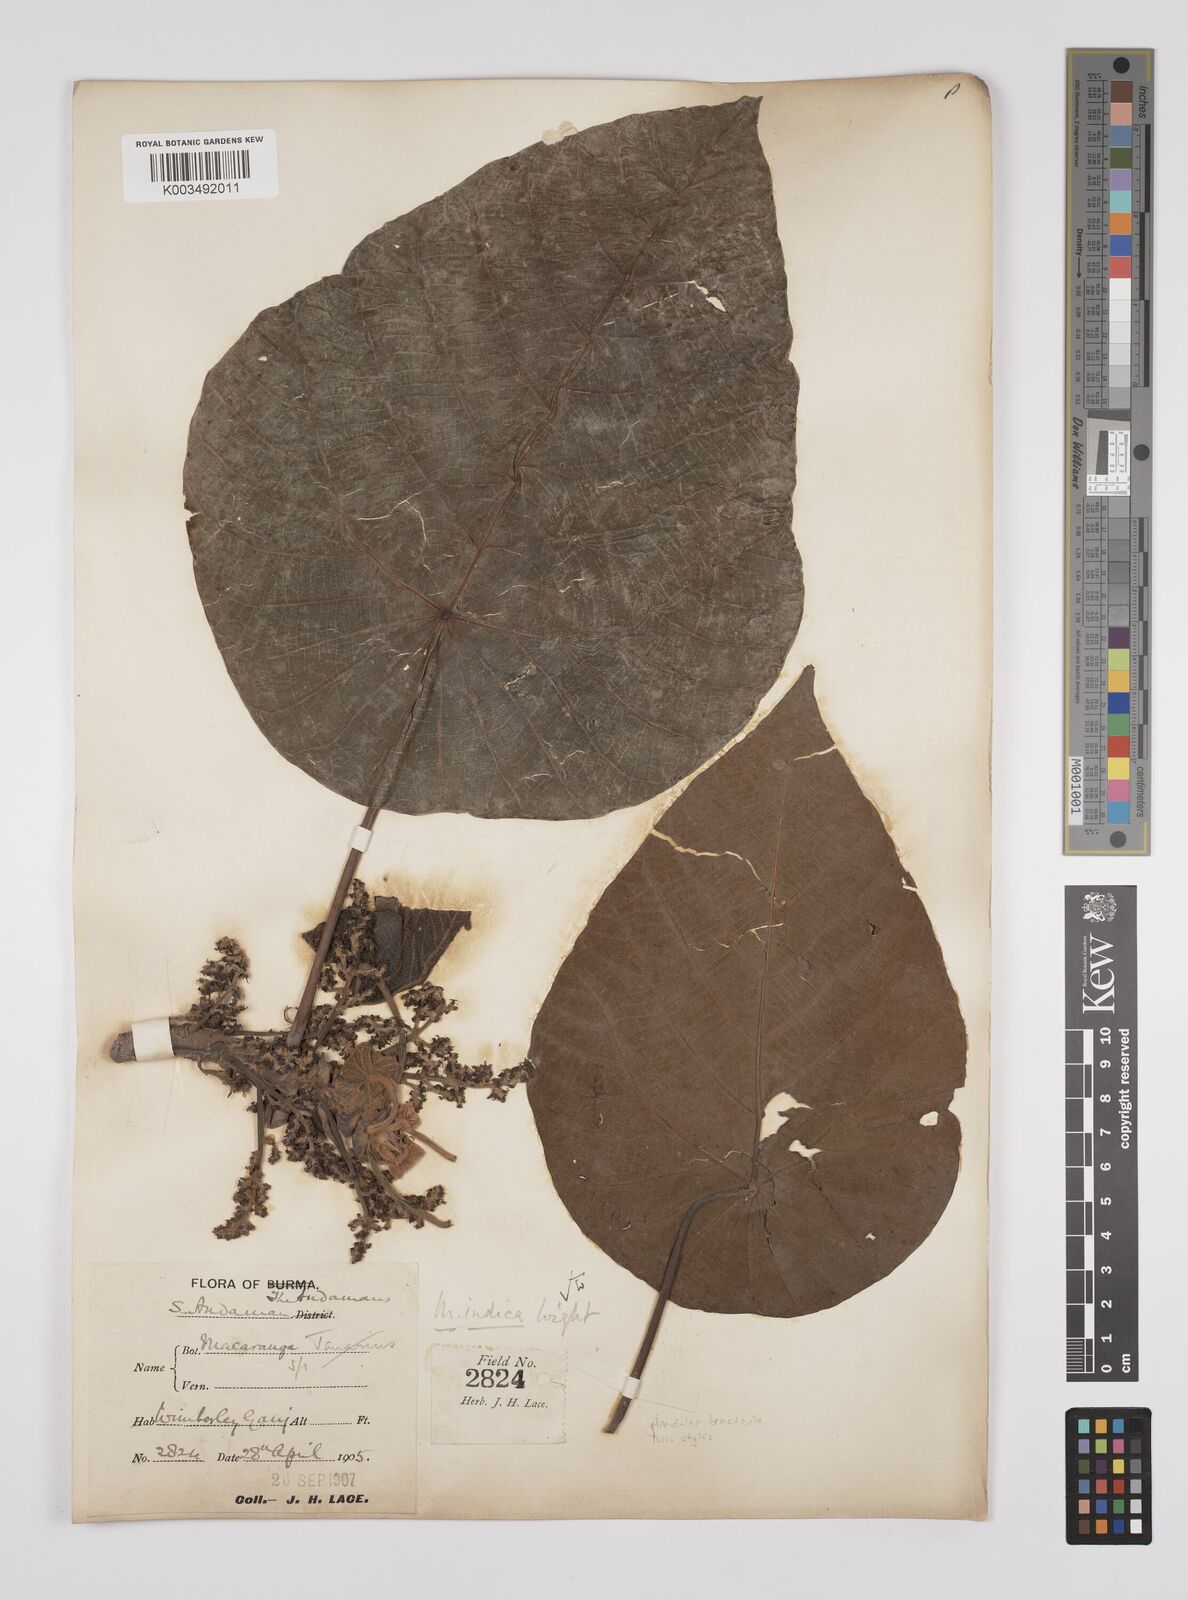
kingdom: Plantae
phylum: Tracheophyta
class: Magnoliopsida
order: Malpighiales
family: Euphorbiaceae
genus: Macaranga
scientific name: Macaranga indica
